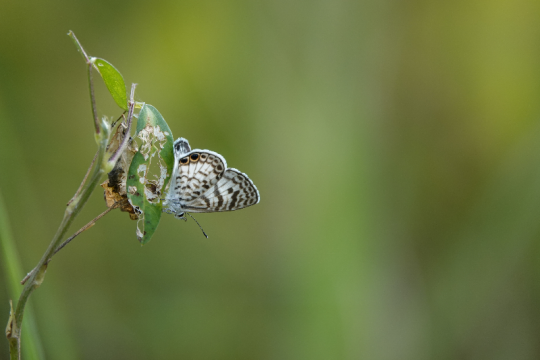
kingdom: Animalia
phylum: Arthropoda
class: Insecta
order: Lepidoptera
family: Lycaenidae
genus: Leptotes
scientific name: Leptotes cassius
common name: Cassius Blue
